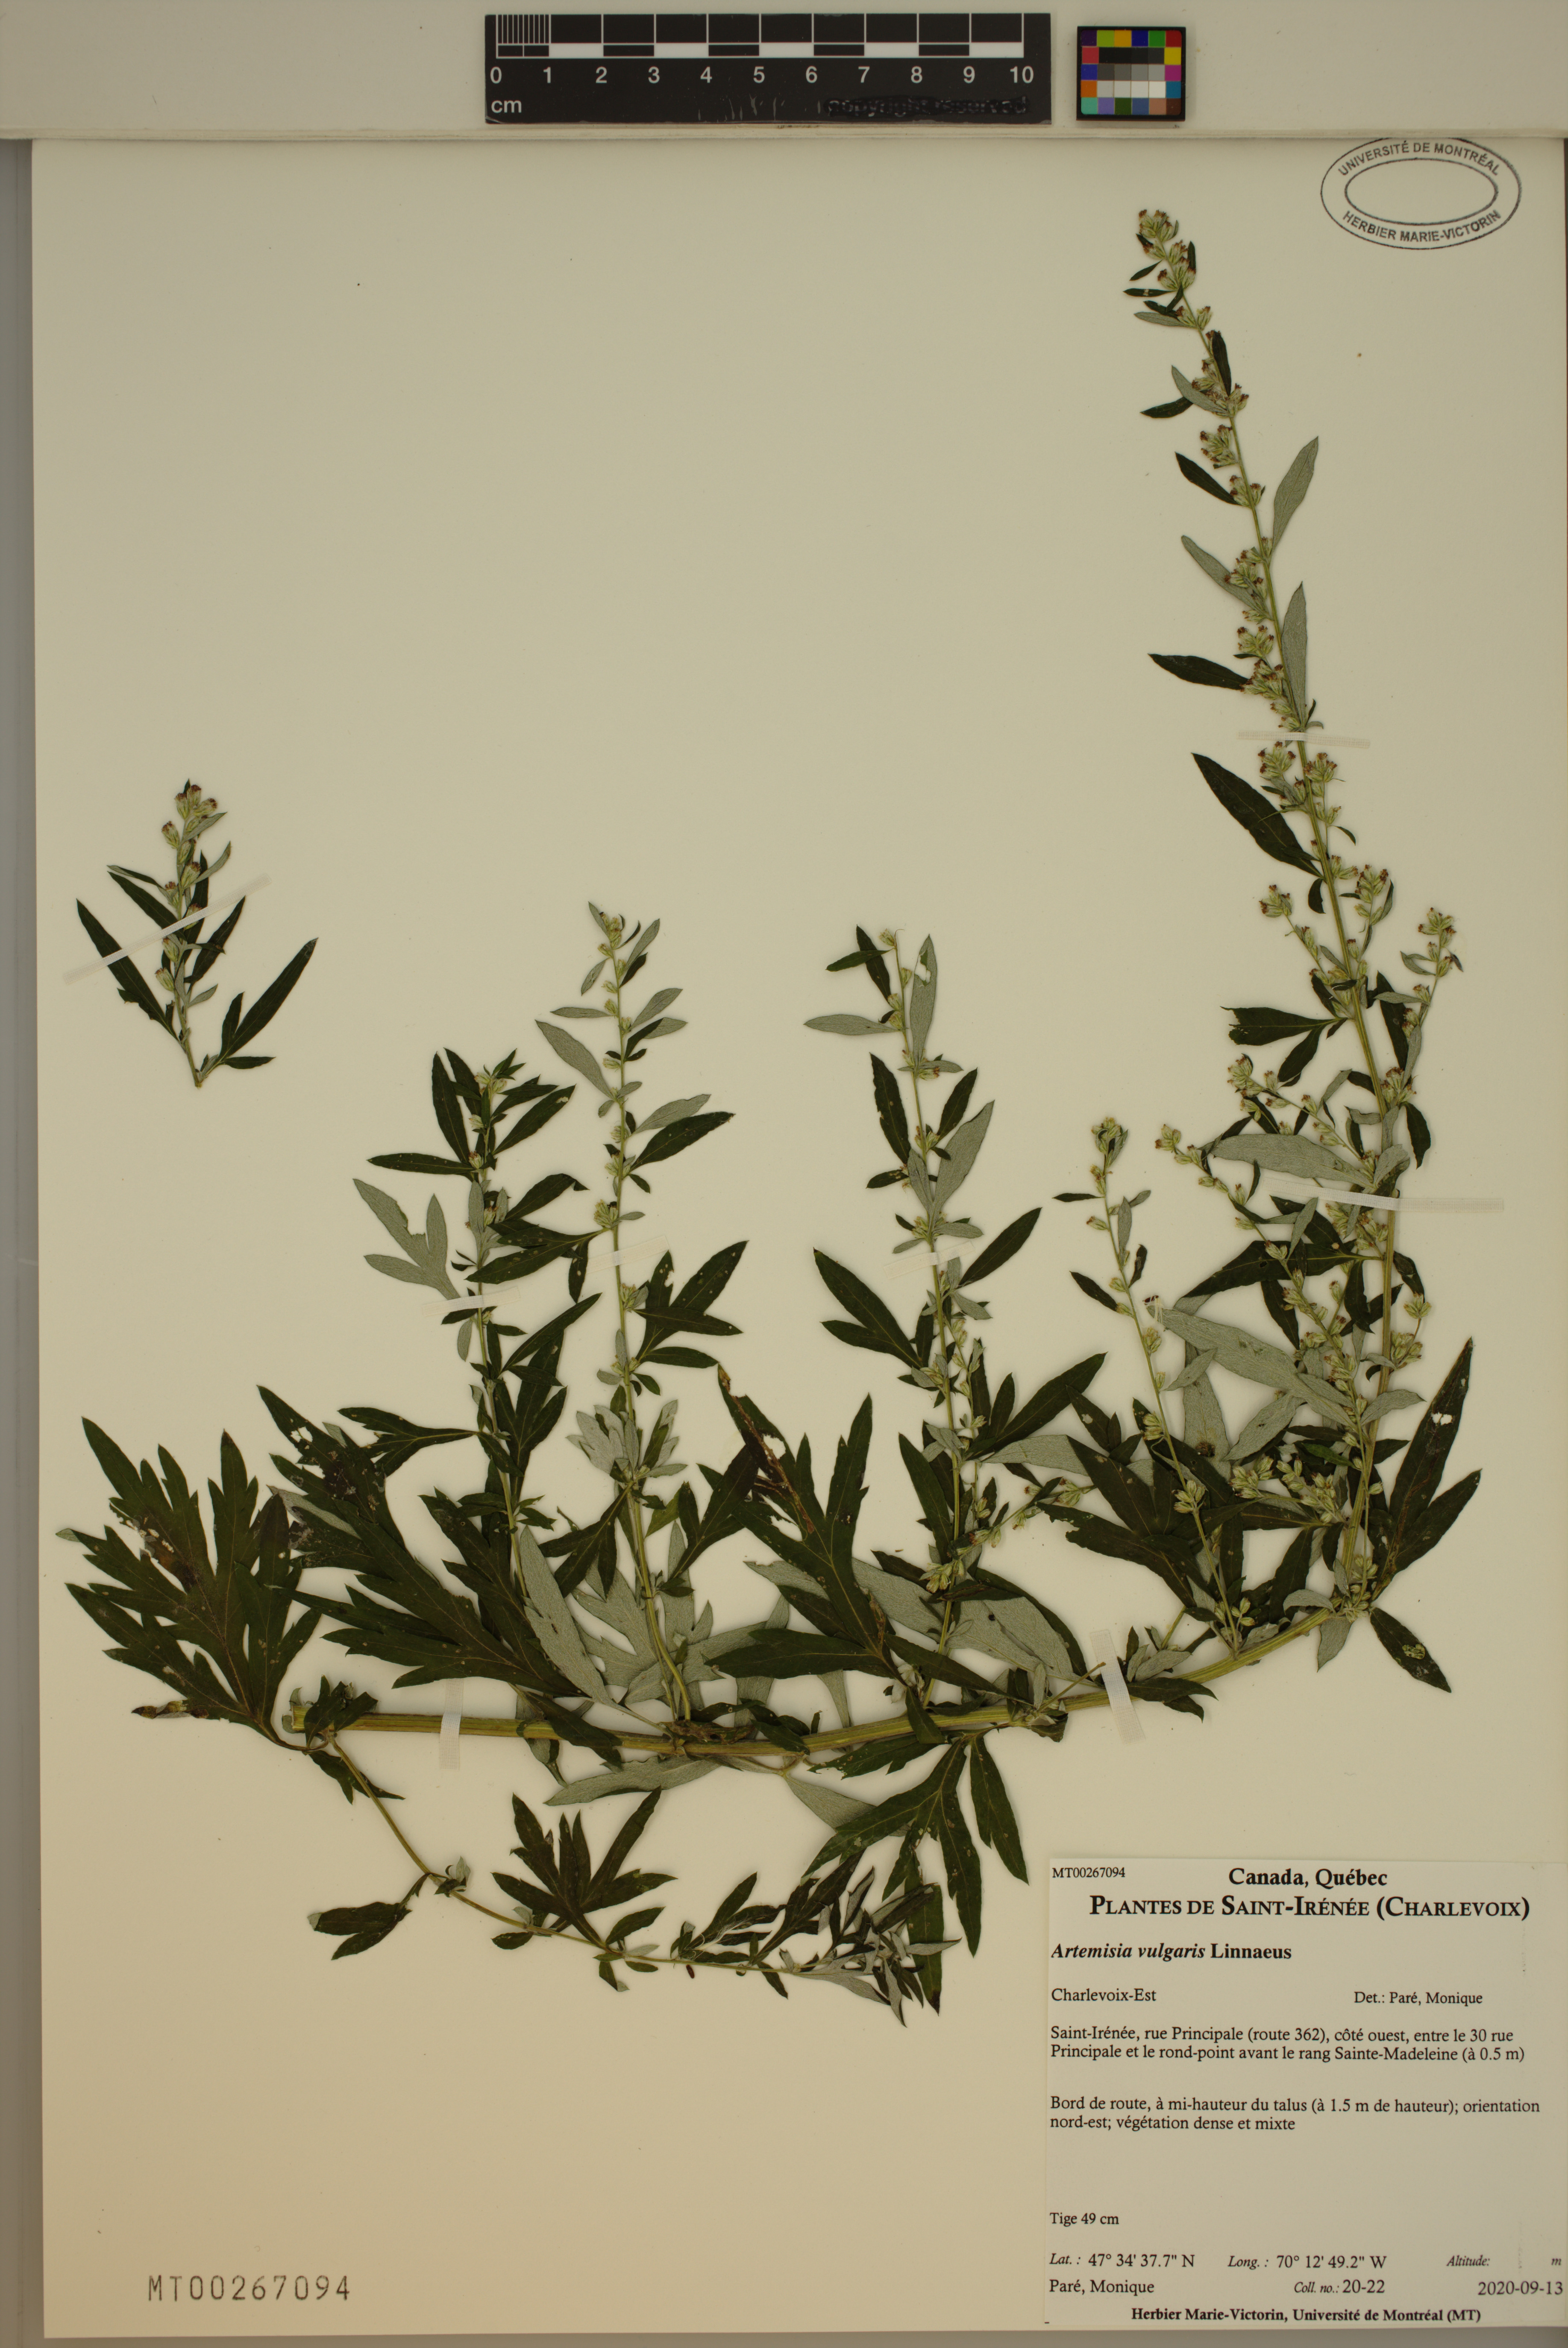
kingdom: Plantae
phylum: Tracheophyta
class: Magnoliopsida
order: Asterales
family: Asteraceae
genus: Artemisia
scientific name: Artemisia vulgaris
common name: Mugwort
